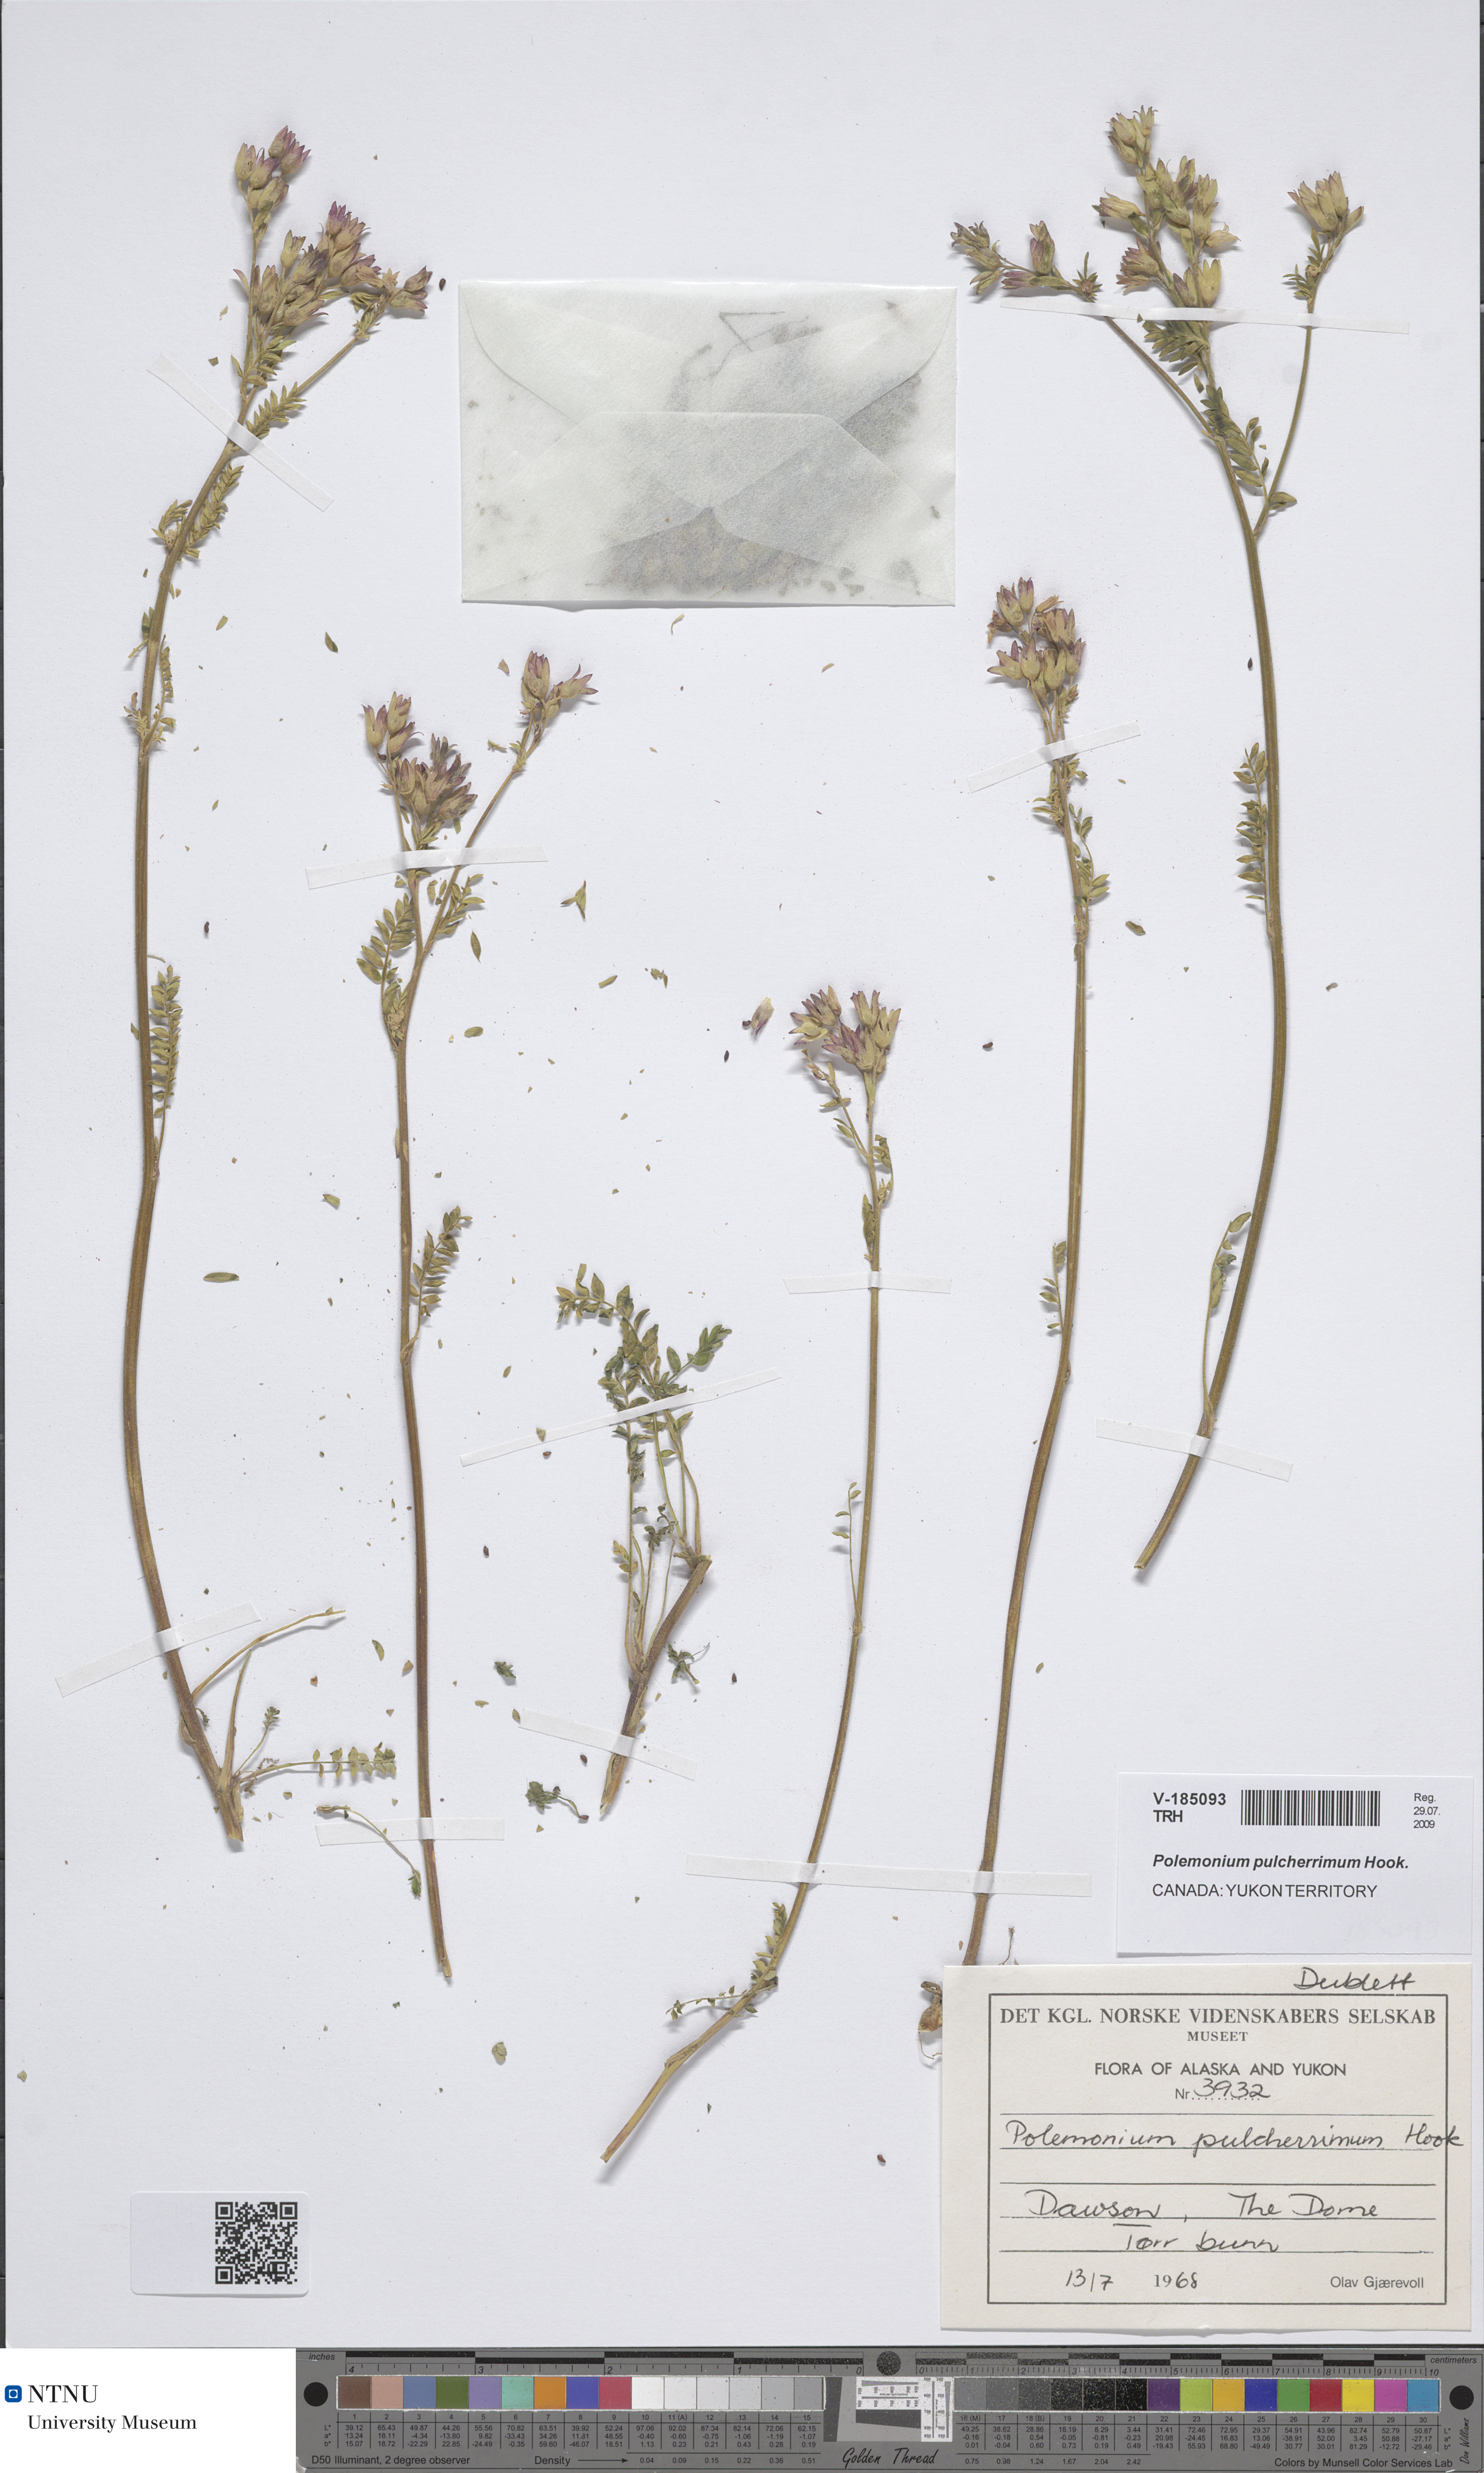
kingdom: Plantae
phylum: Tracheophyta
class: Magnoliopsida
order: Ericales
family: Polemoniaceae
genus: Polemonium
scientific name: Polemonium pulcherrimum
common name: Short jacob's-ladder
